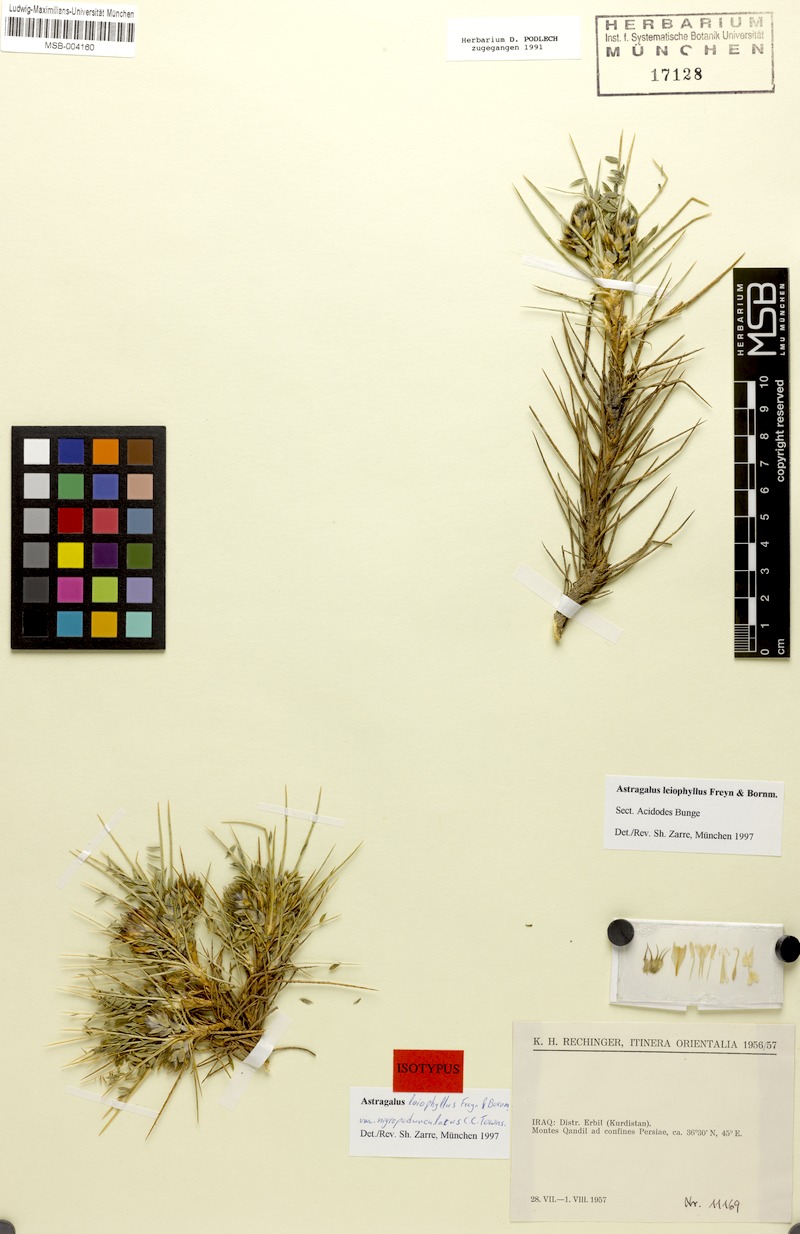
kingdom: Plantae
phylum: Tracheophyta
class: Magnoliopsida
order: Fabales
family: Fabaceae
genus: Astragalus
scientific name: Astragalus leiophyllus
